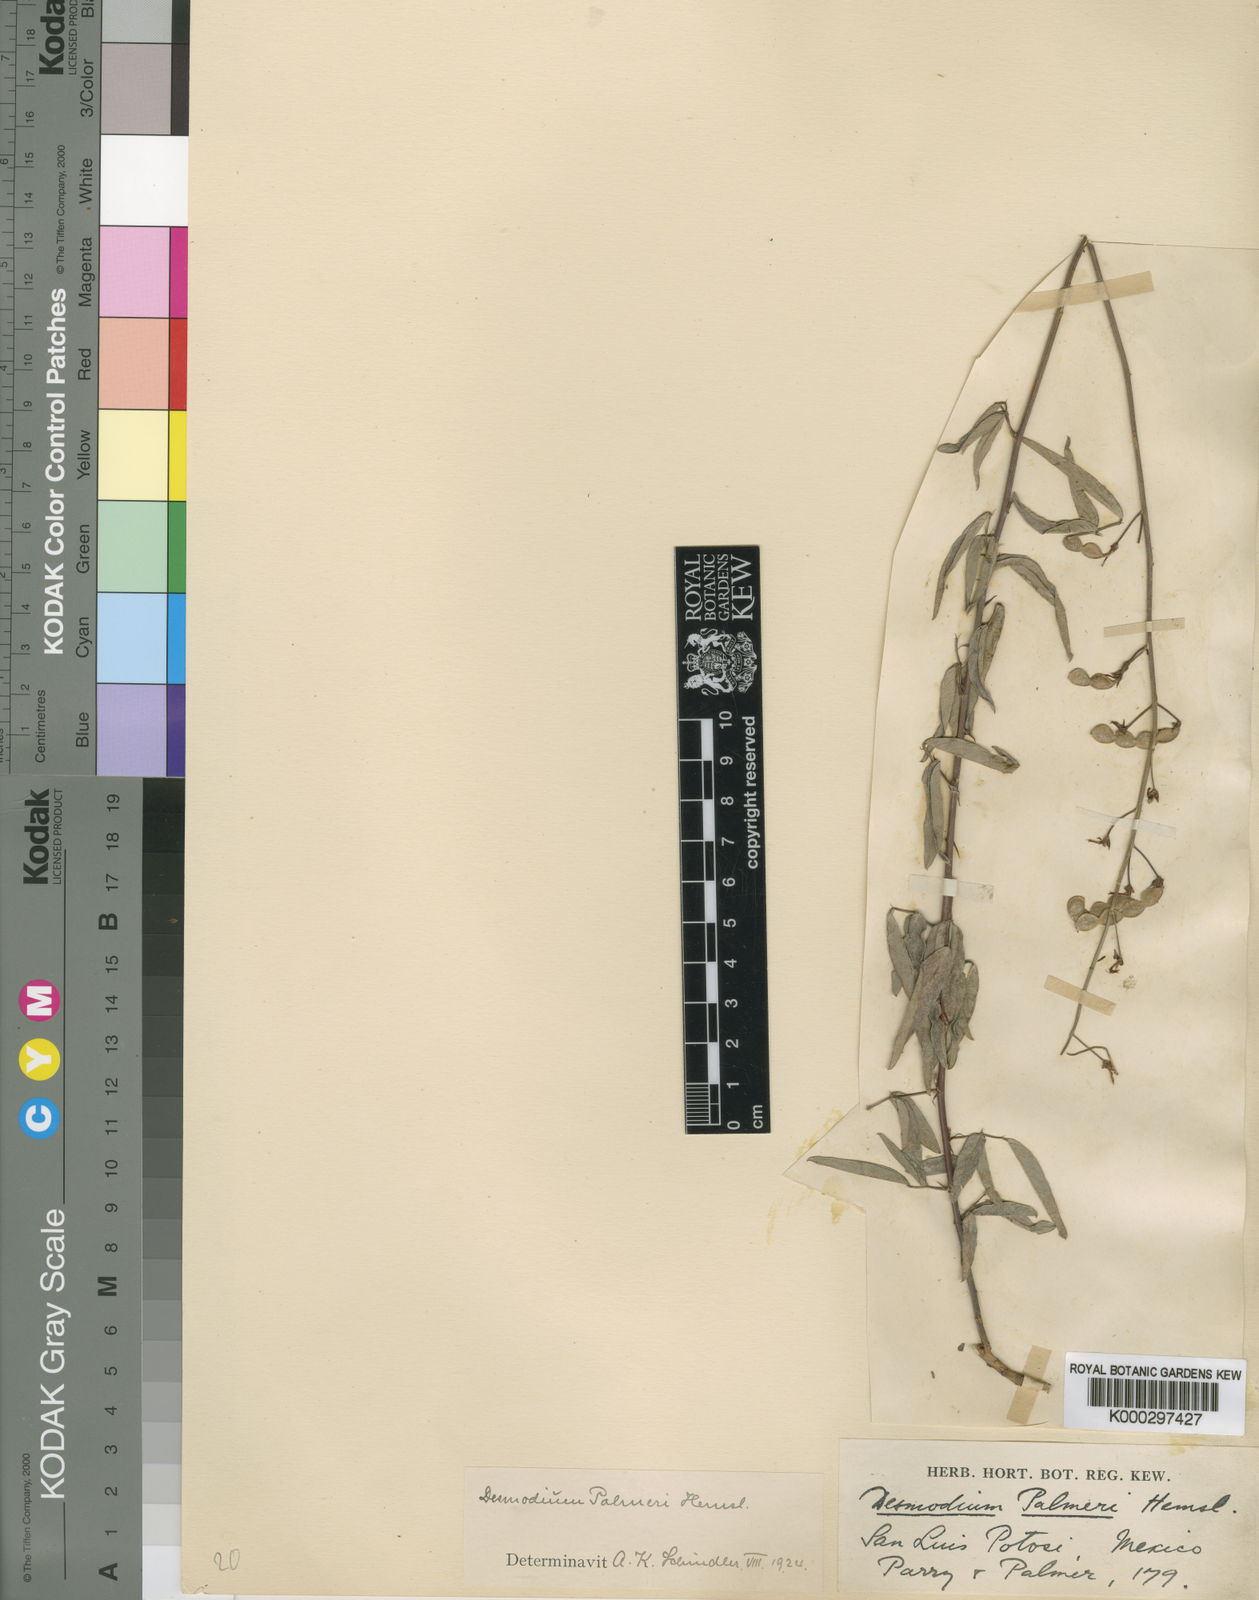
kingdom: Plantae
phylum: Tracheophyta
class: Magnoliopsida
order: Fabales
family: Fabaceae
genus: Desmodium
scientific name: Desmodium palmeri
